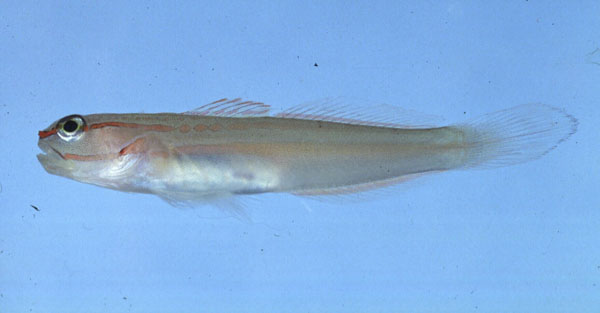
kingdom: Animalia
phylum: Chordata
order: Perciformes
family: Gobiidae
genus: Amblygobius
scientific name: Amblygobius decussatus
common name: Crosshatch goby
